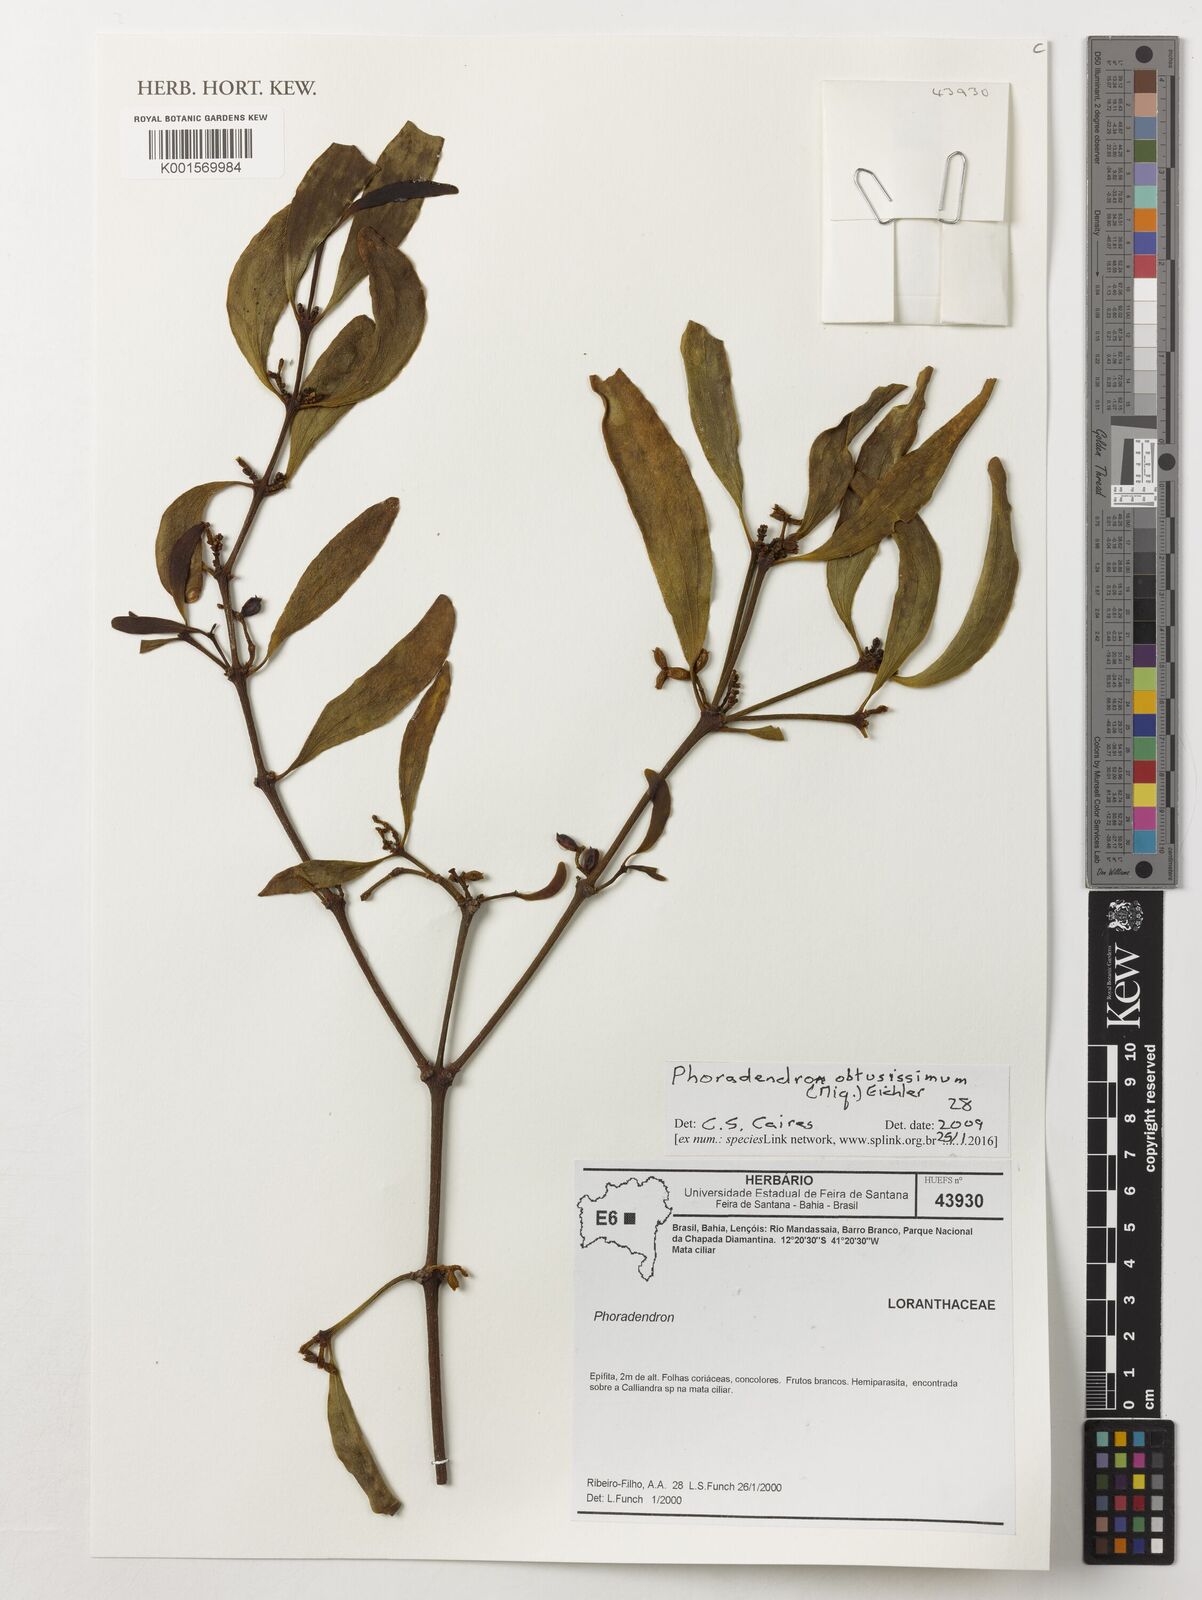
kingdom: Plantae
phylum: Tracheophyta
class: Magnoliopsida
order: Santalales
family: Viscaceae
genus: Phoradendron
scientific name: Phoradendron obtusissimum
